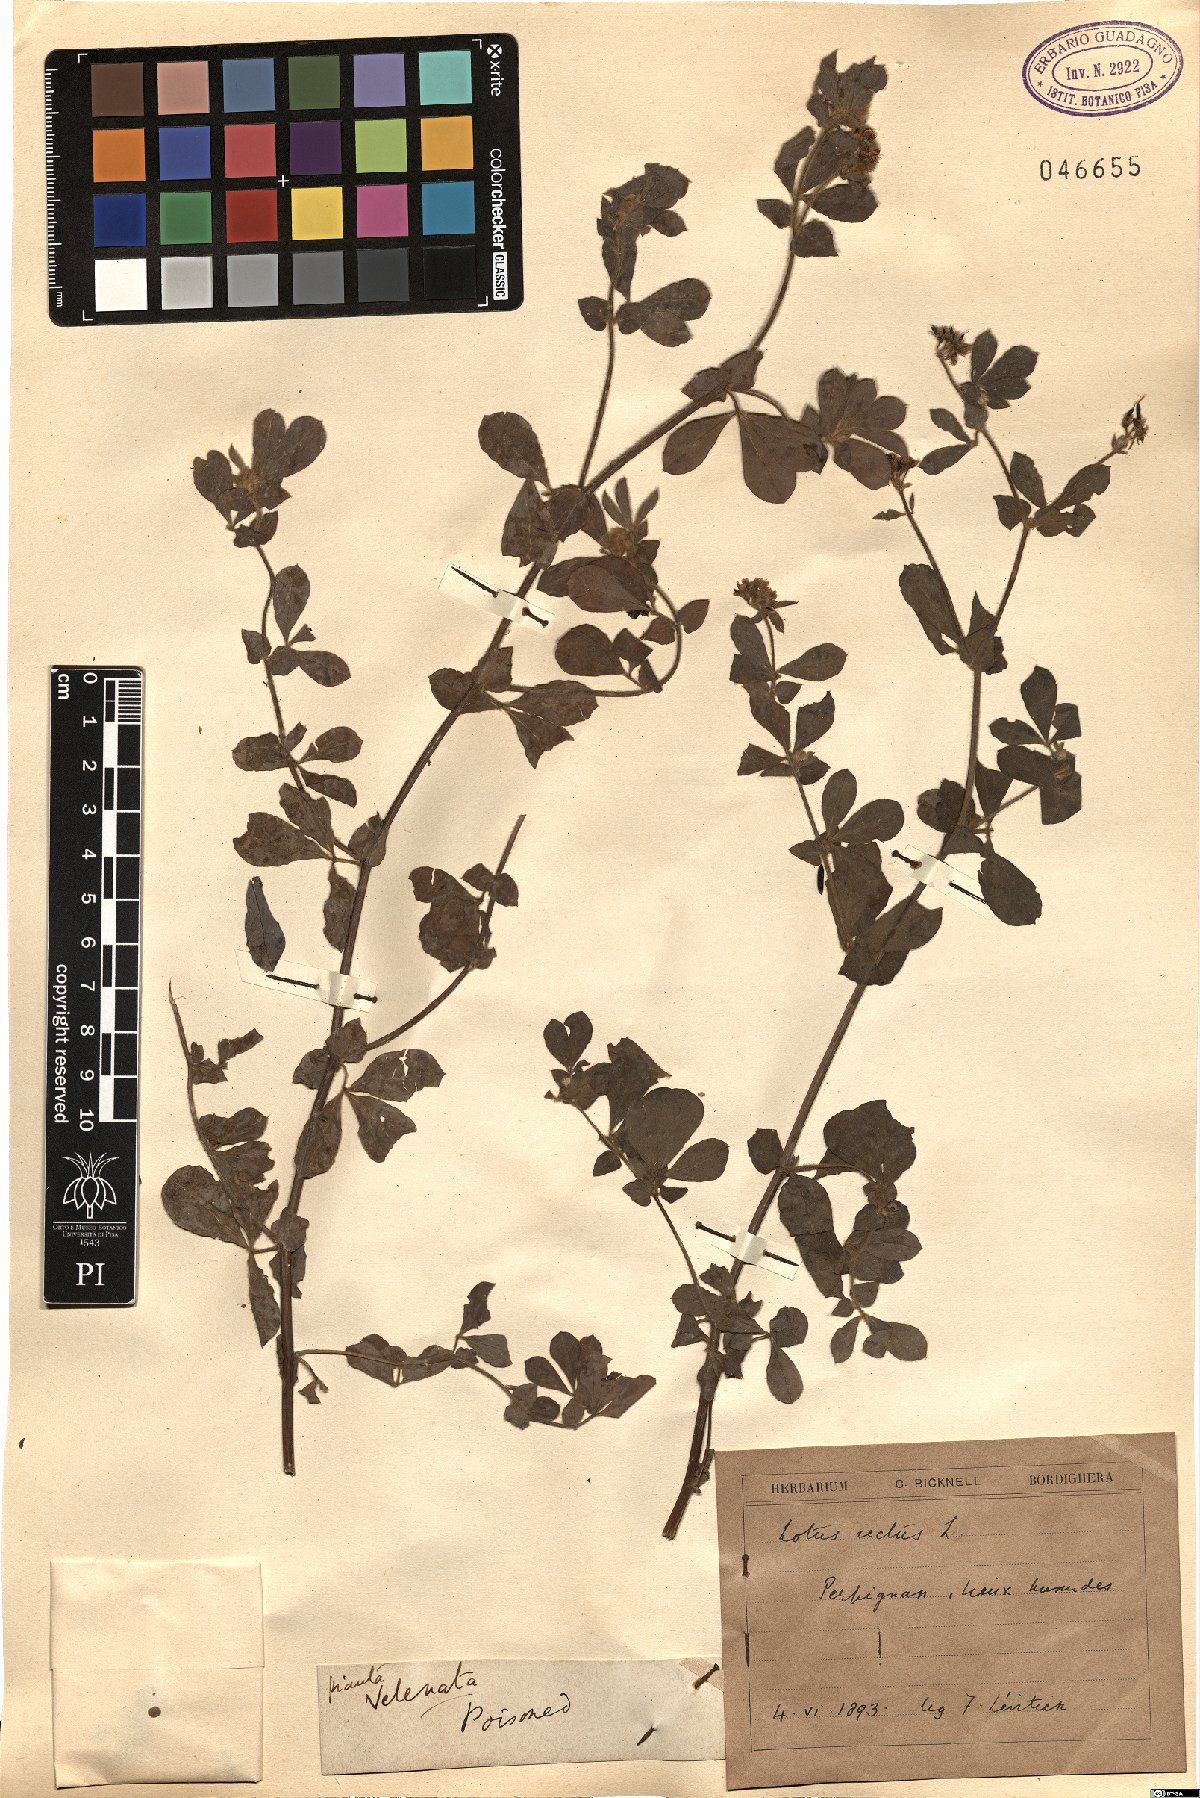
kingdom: Plantae
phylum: Tracheophyta
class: Magnoliopsida
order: Fabales
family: Fabaceae
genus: Lotus
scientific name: Lotus rectus
